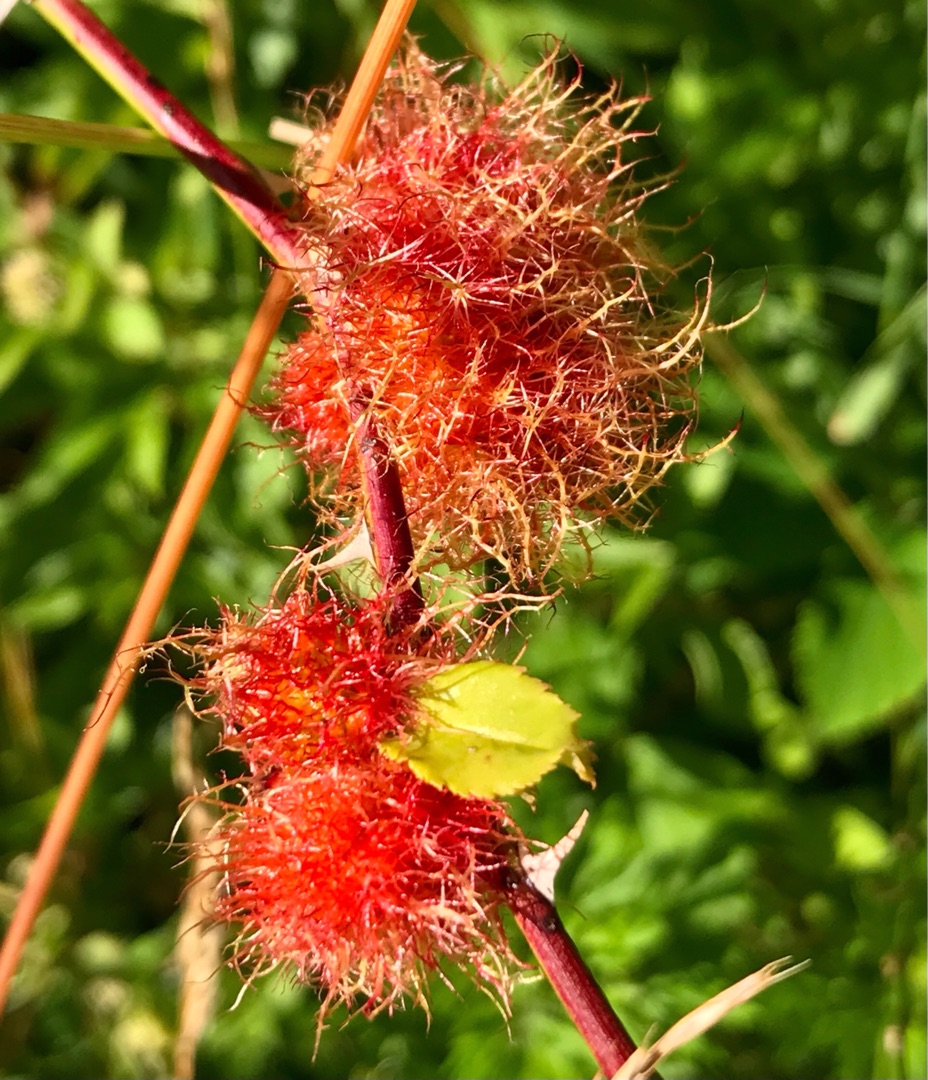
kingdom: Animalia
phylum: Arthropoda
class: Insecta
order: Hymenoptera
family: Cynipidae
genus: Diplolepis
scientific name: Diplolepis rosae
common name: Bedeguargalhveps
